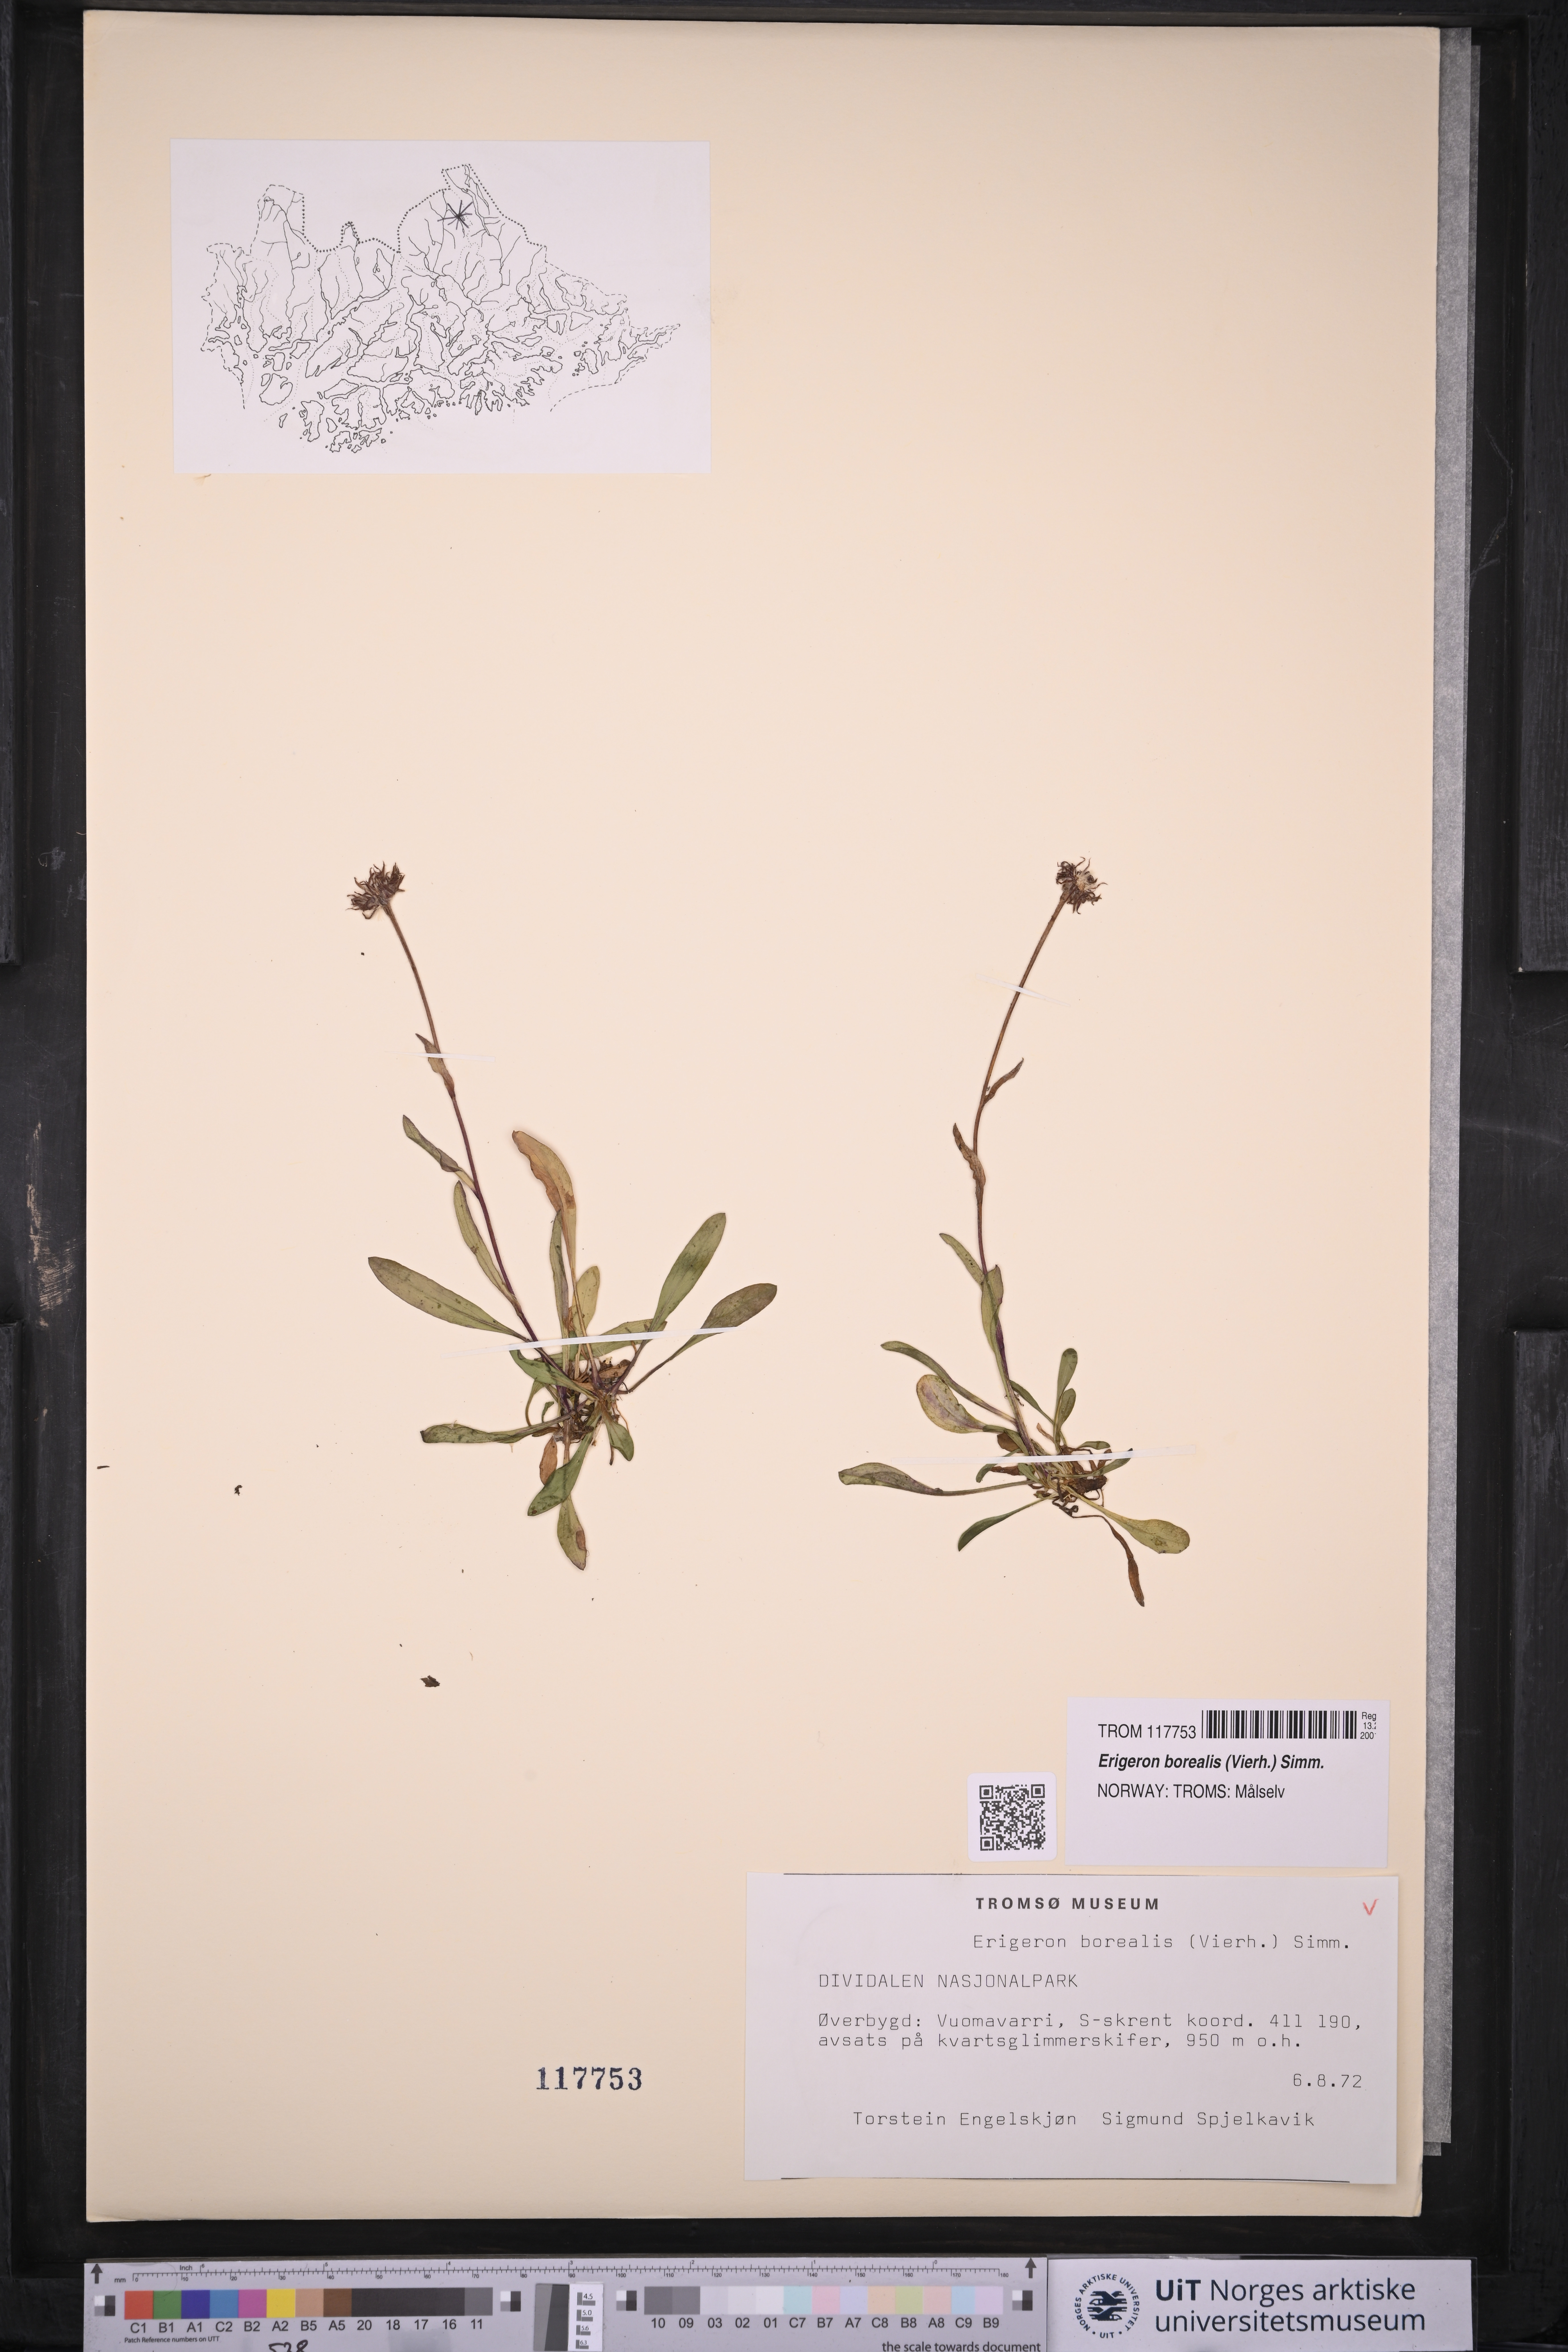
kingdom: Plantae
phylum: Tracheophyta
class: Magnoliopsida
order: Asterales
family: Asteraceae
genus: Erigeron
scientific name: Erigeron borealis
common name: Alpine fleabane
